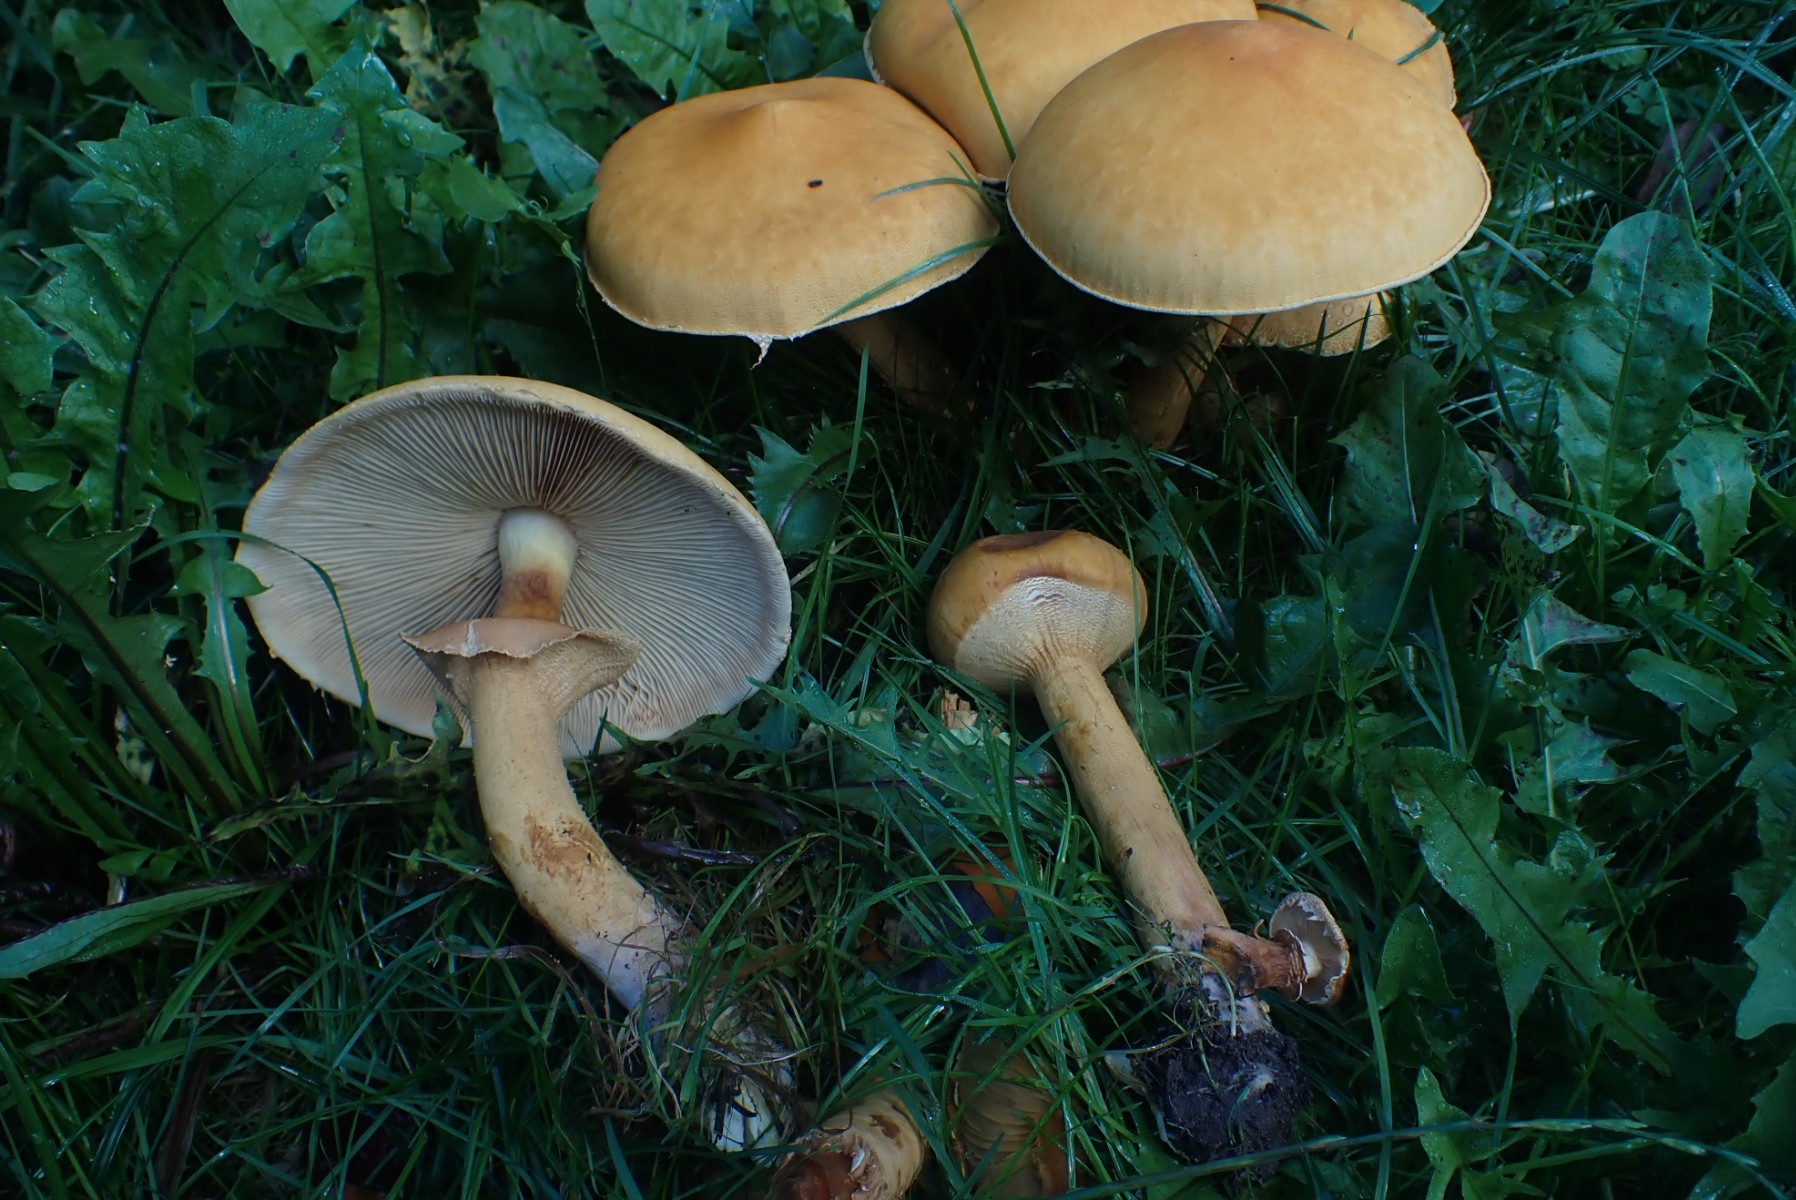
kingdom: Fungi
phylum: Basidiomycota
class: Agaricomycetes
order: Agaricales
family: Tricholomataceae
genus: Phaeolepiota
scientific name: Phaeolepiota aurea
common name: gyldenhat
